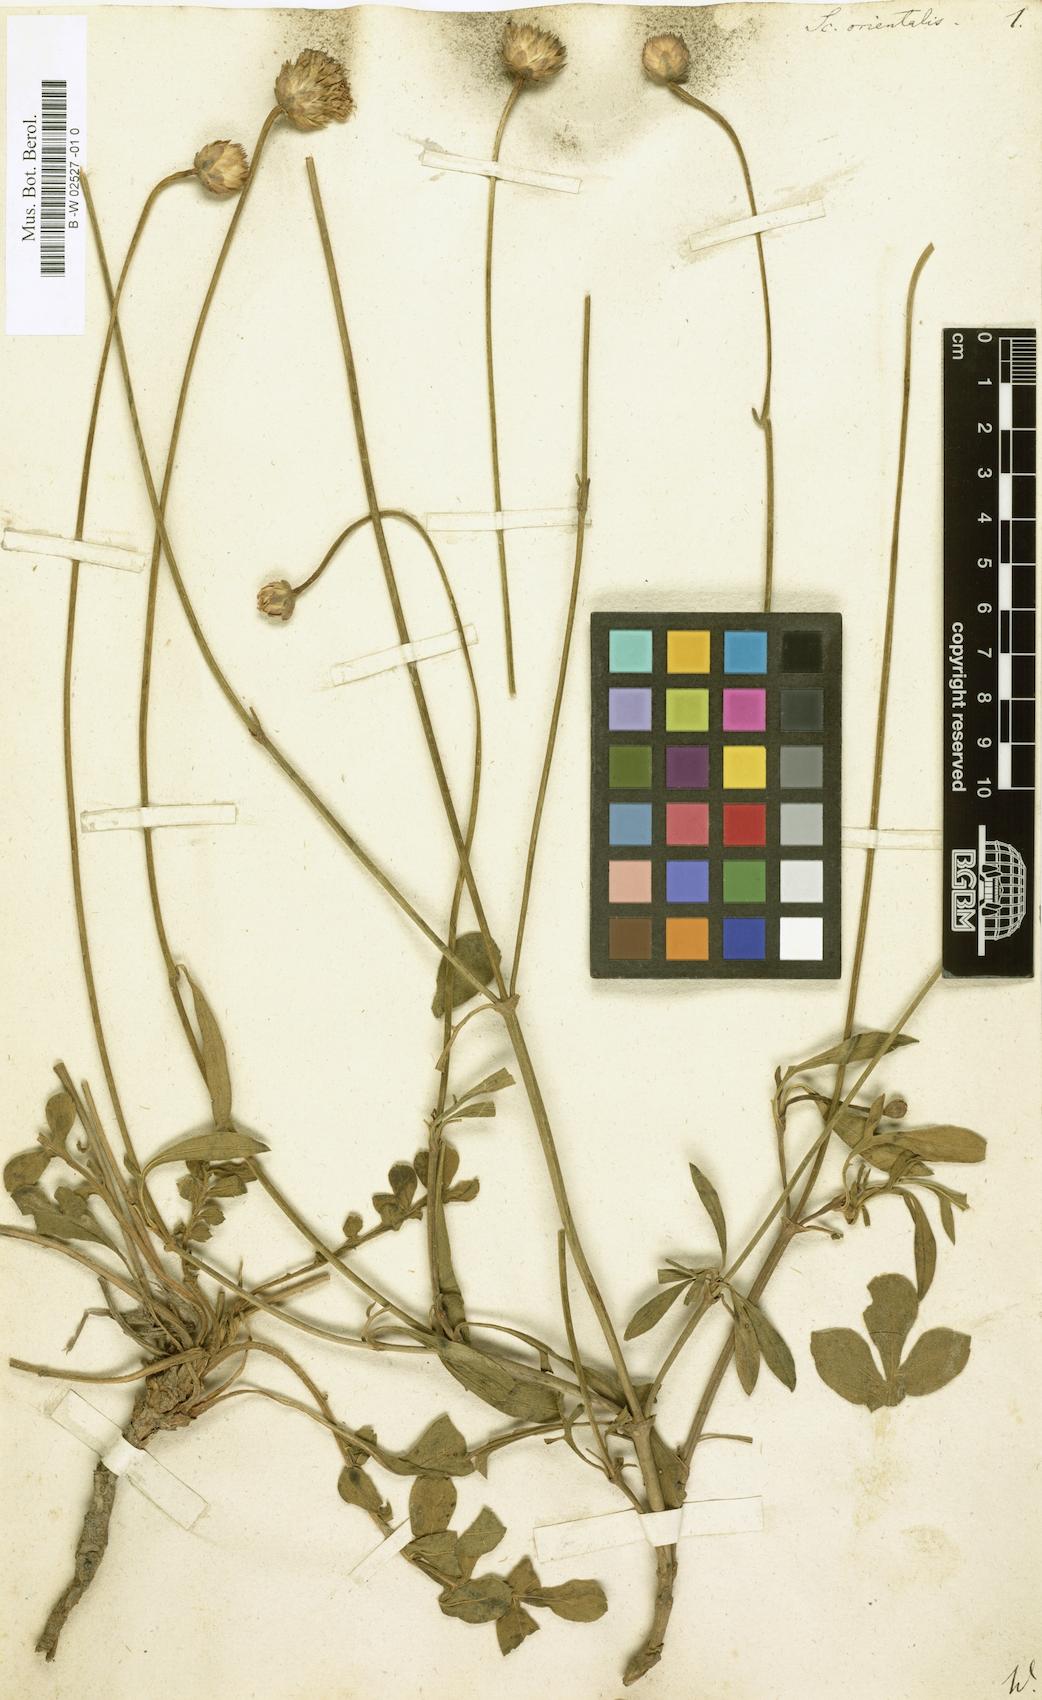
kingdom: Plantae
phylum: Tracheophyta
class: Magnoliopsida
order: Dipsacales
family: Caprifoliaceae
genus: Knautia
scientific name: Knautia orientalis
